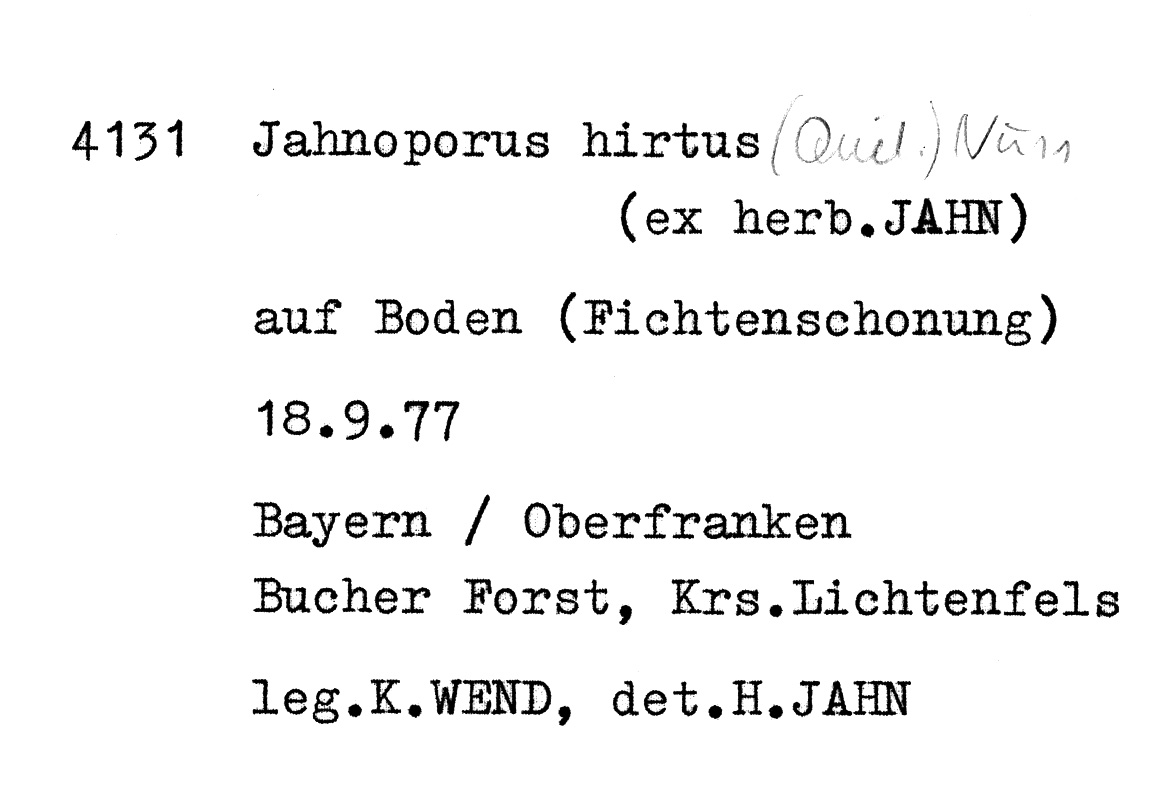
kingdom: Fungi
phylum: Basidiomycota
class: Agaricomycetes
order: Polyporales
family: Dacryobolaceae
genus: Jahnoporus
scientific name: Jahnoporus hirtus
